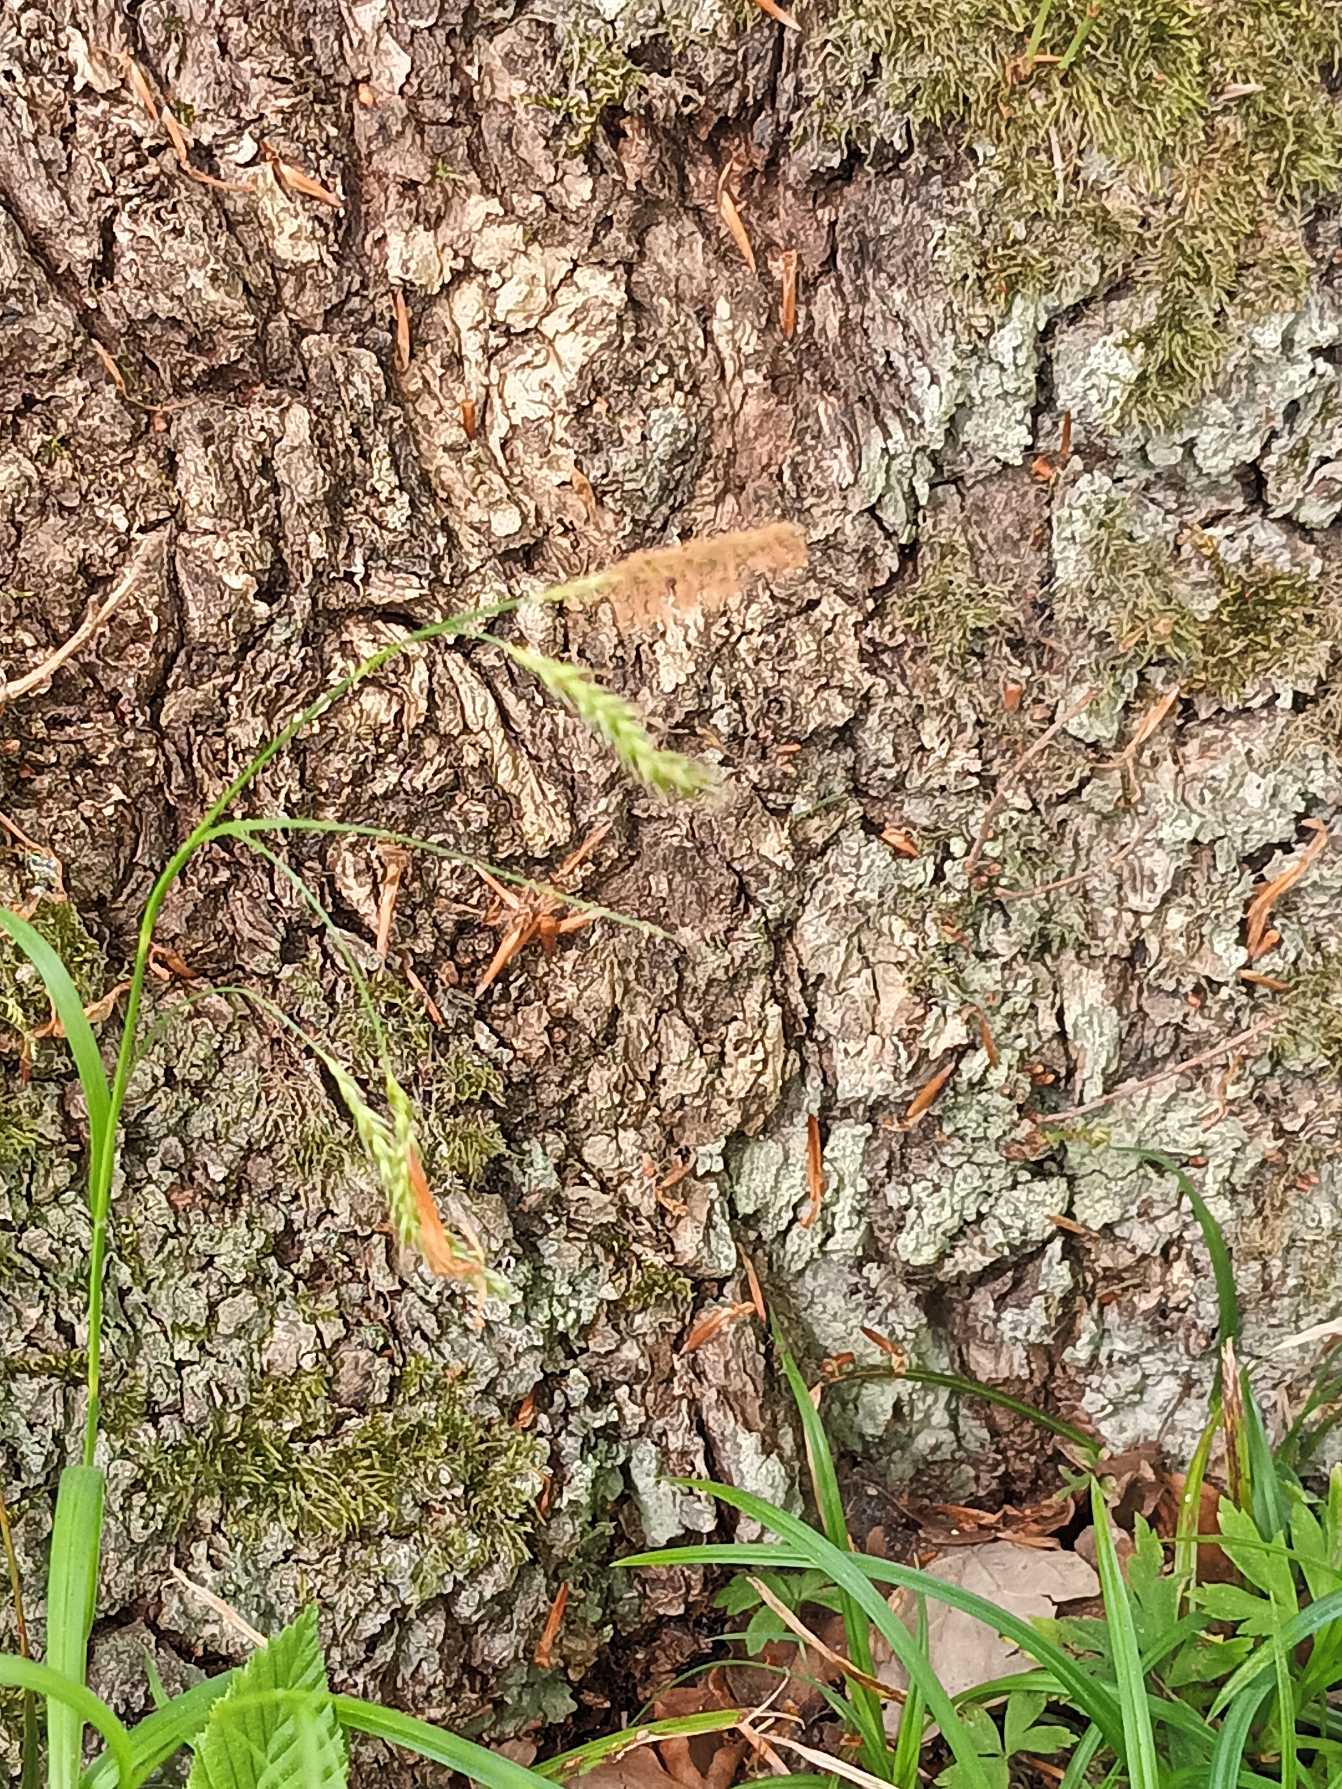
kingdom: Plantae
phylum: Tracheophyta
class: Liliopsida
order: Poales
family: Cyperaceae
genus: Carex
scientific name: Carex sylvatica
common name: Skov-star
